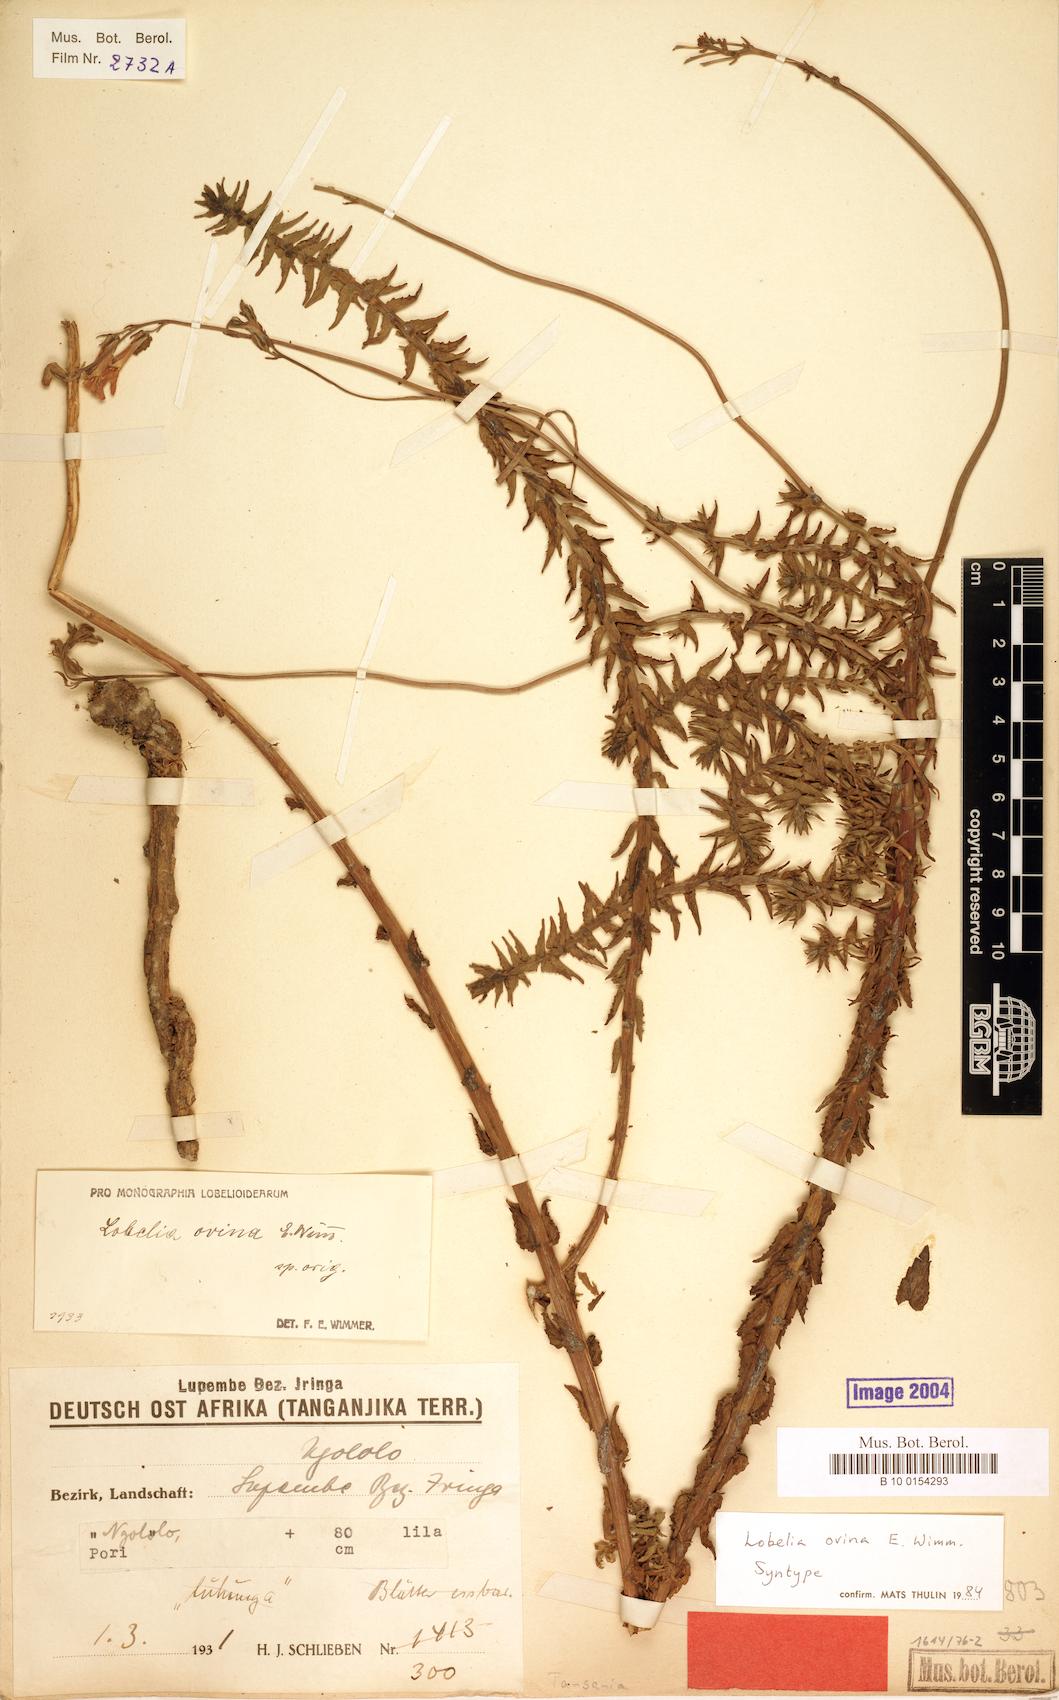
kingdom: Plantae
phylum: Tracheophyta
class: Magnoliopsida
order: Asterales
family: Campanulaceae
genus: Lobelia
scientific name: Lobelia ovina
